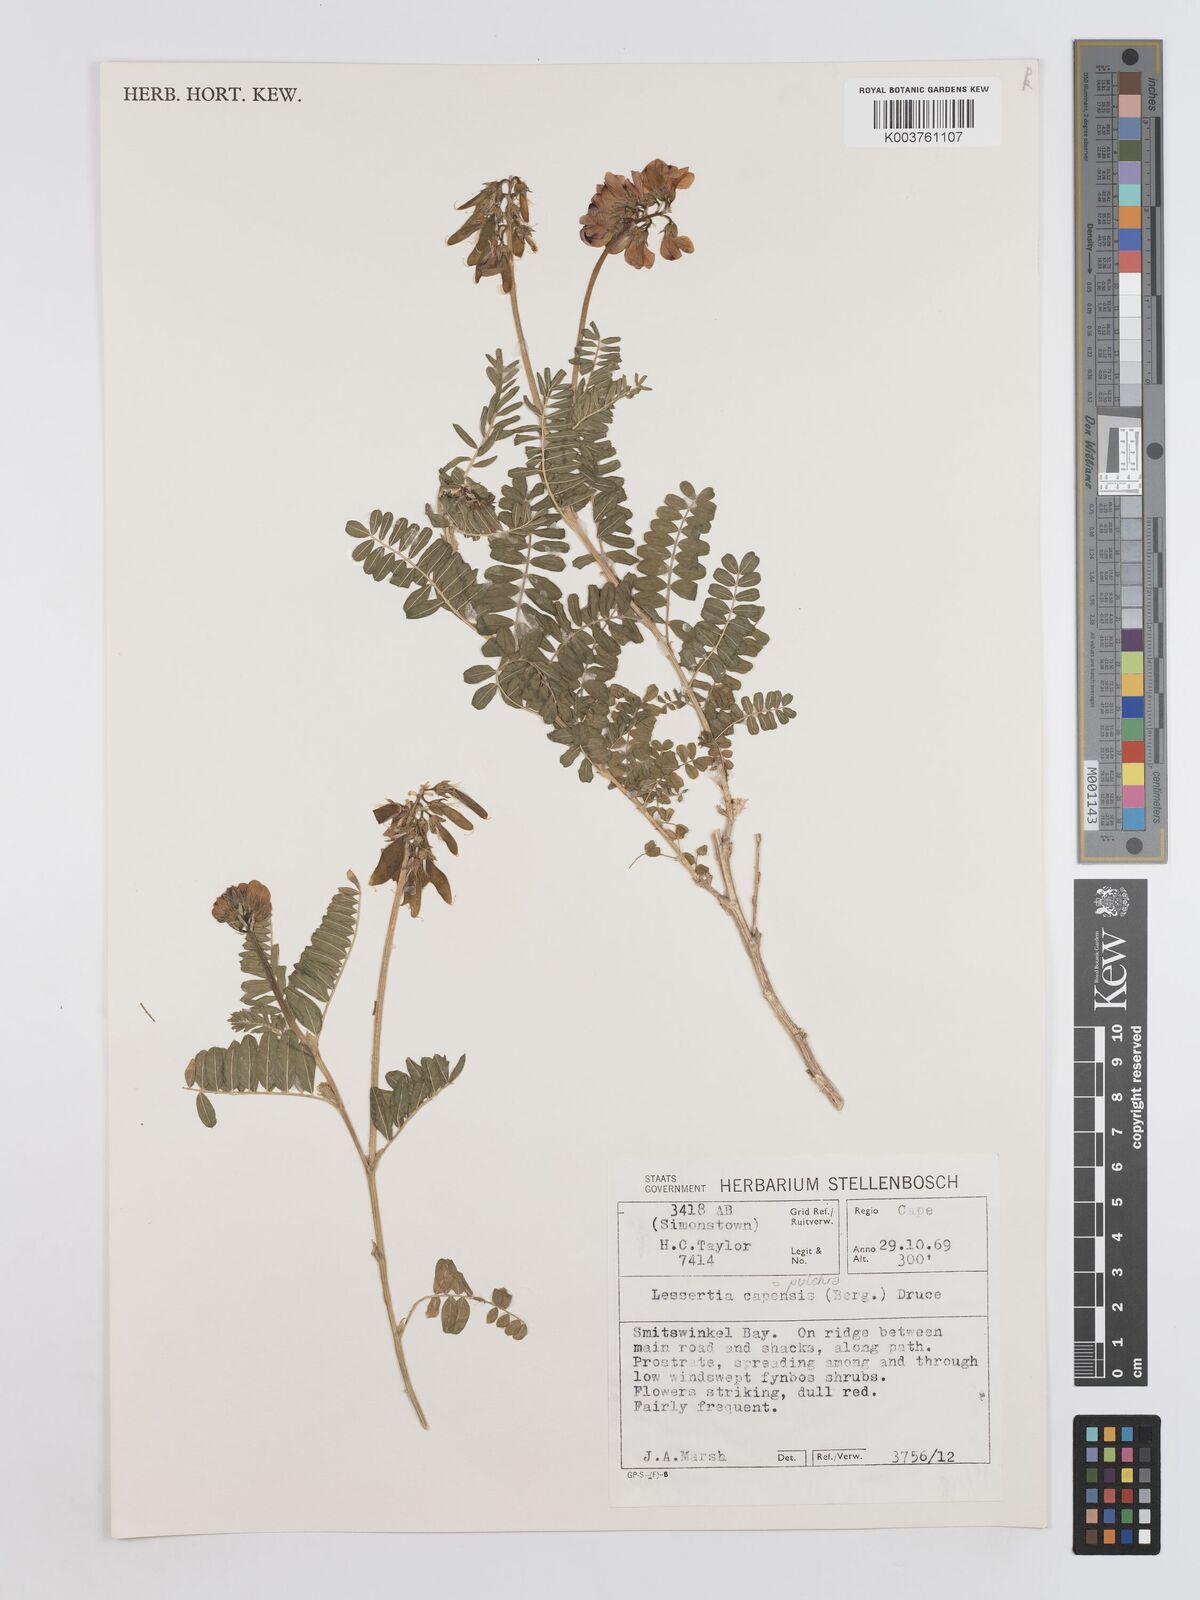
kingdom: Plantae
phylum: Tracheophyta
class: Magnoliopsida
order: Fabales
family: Fabaceae
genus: Lessertia
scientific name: Lessertia capensis
